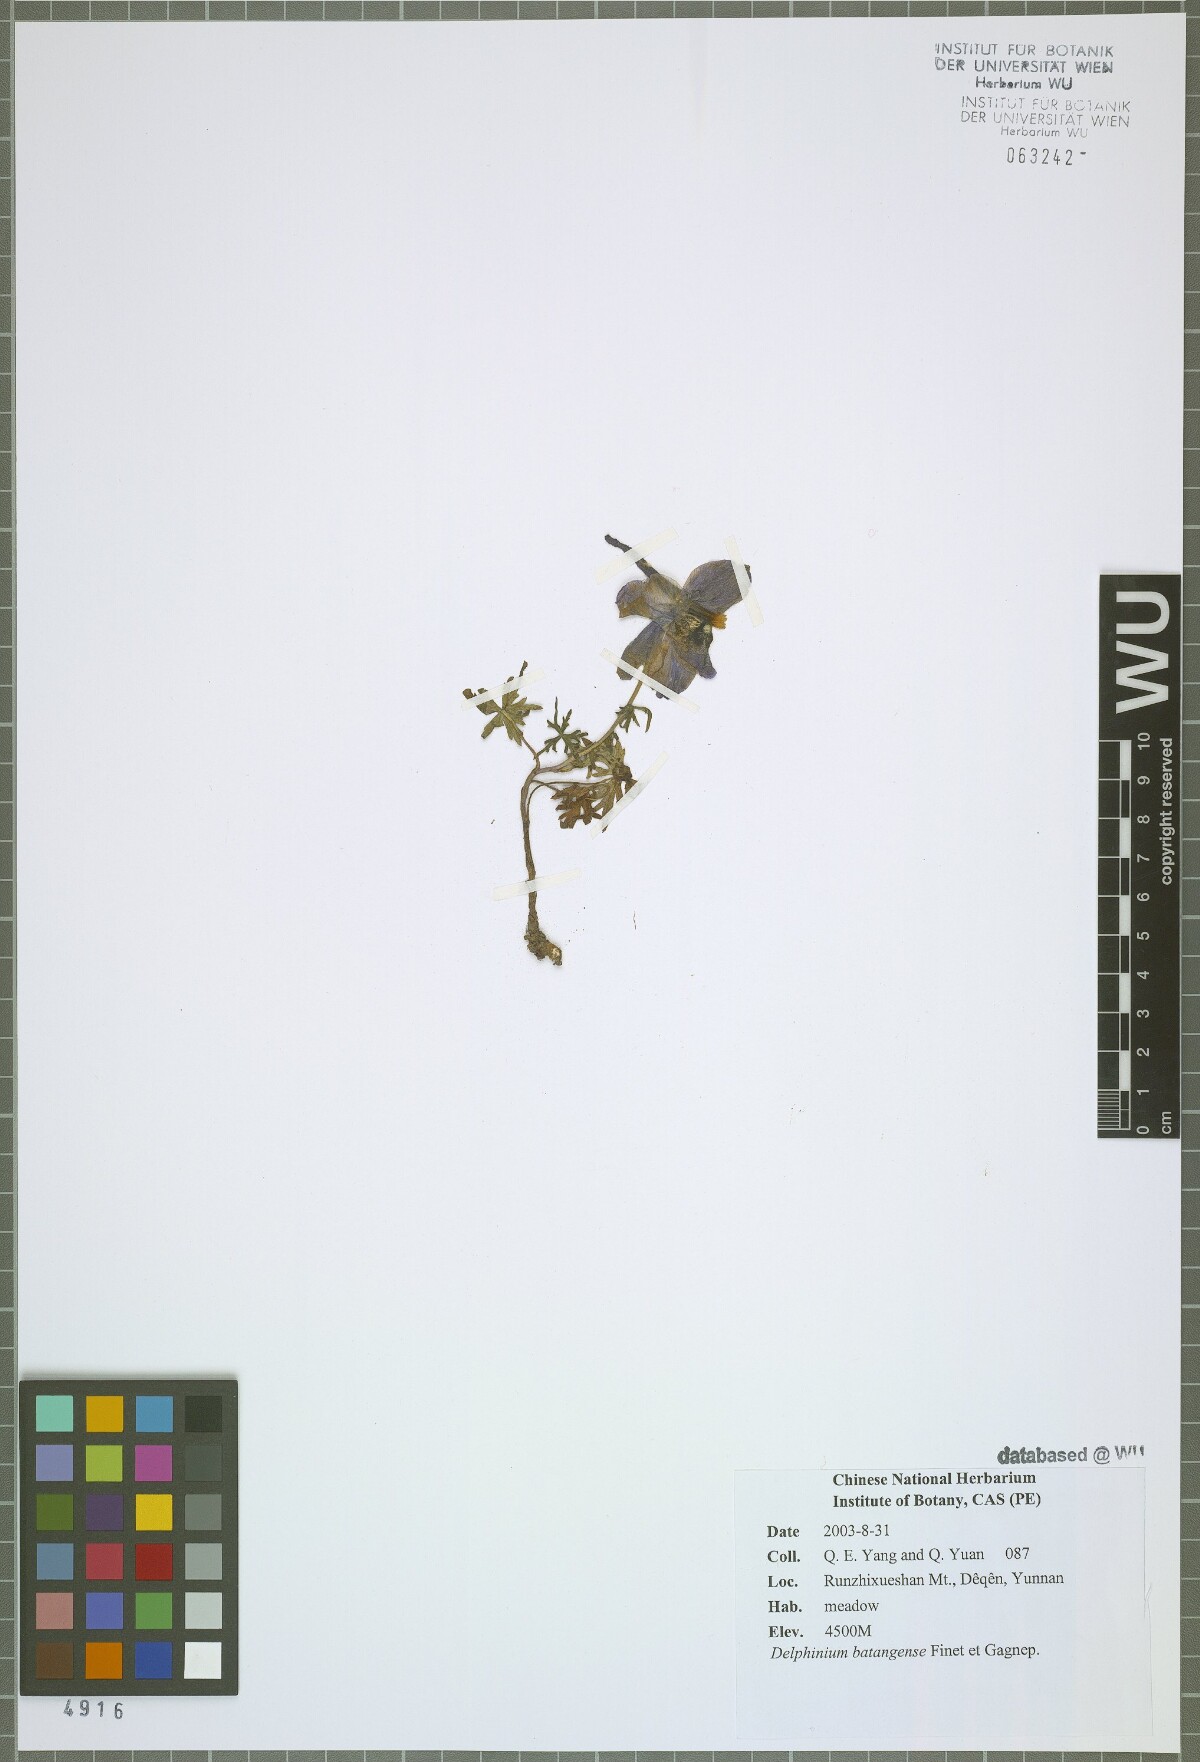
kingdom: Plantae
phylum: Tracheophyta
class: Magnoliopsida
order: Ranunculales
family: Ranunculaceae
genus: Delphinium
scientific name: Delphinium batangense
